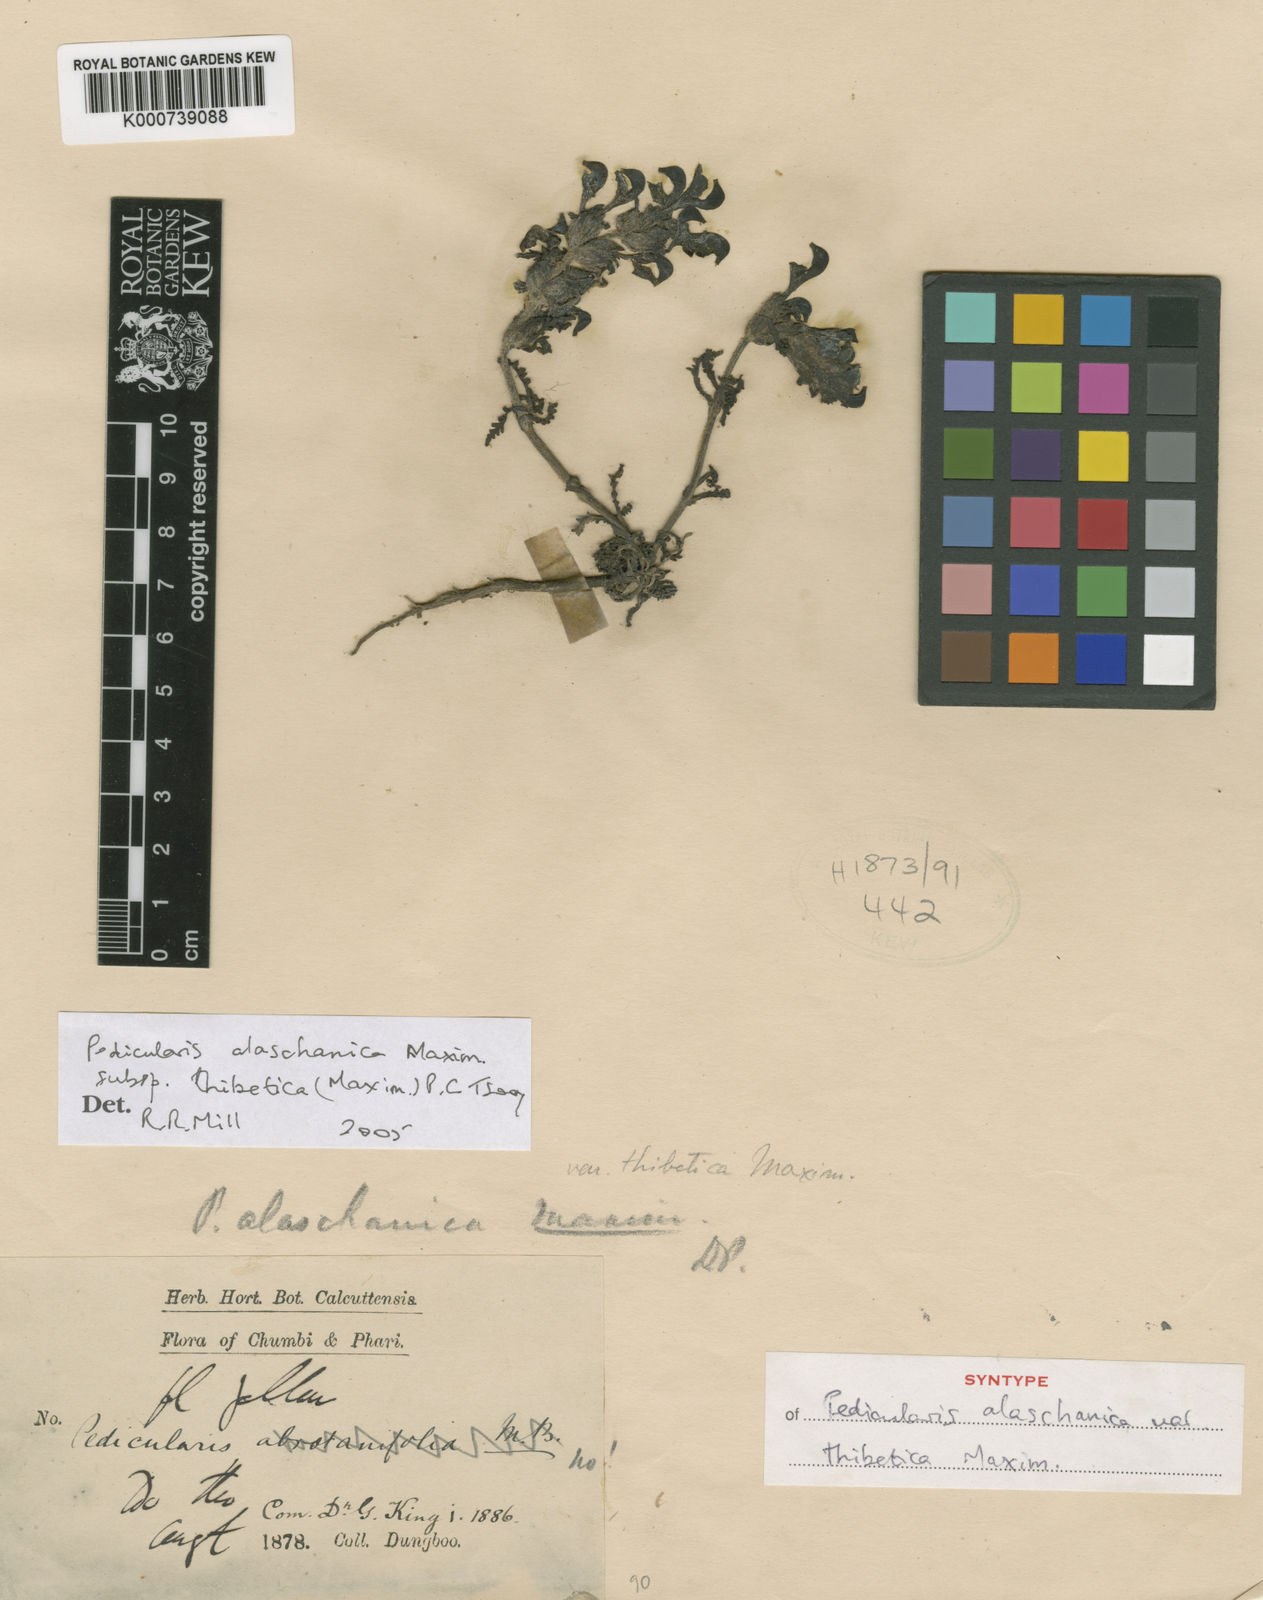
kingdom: Plantae
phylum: Tracheophyta
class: Magnoliopsida
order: Lamiales
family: Orobanchaceae
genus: Pedicularis
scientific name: Pedicularis
